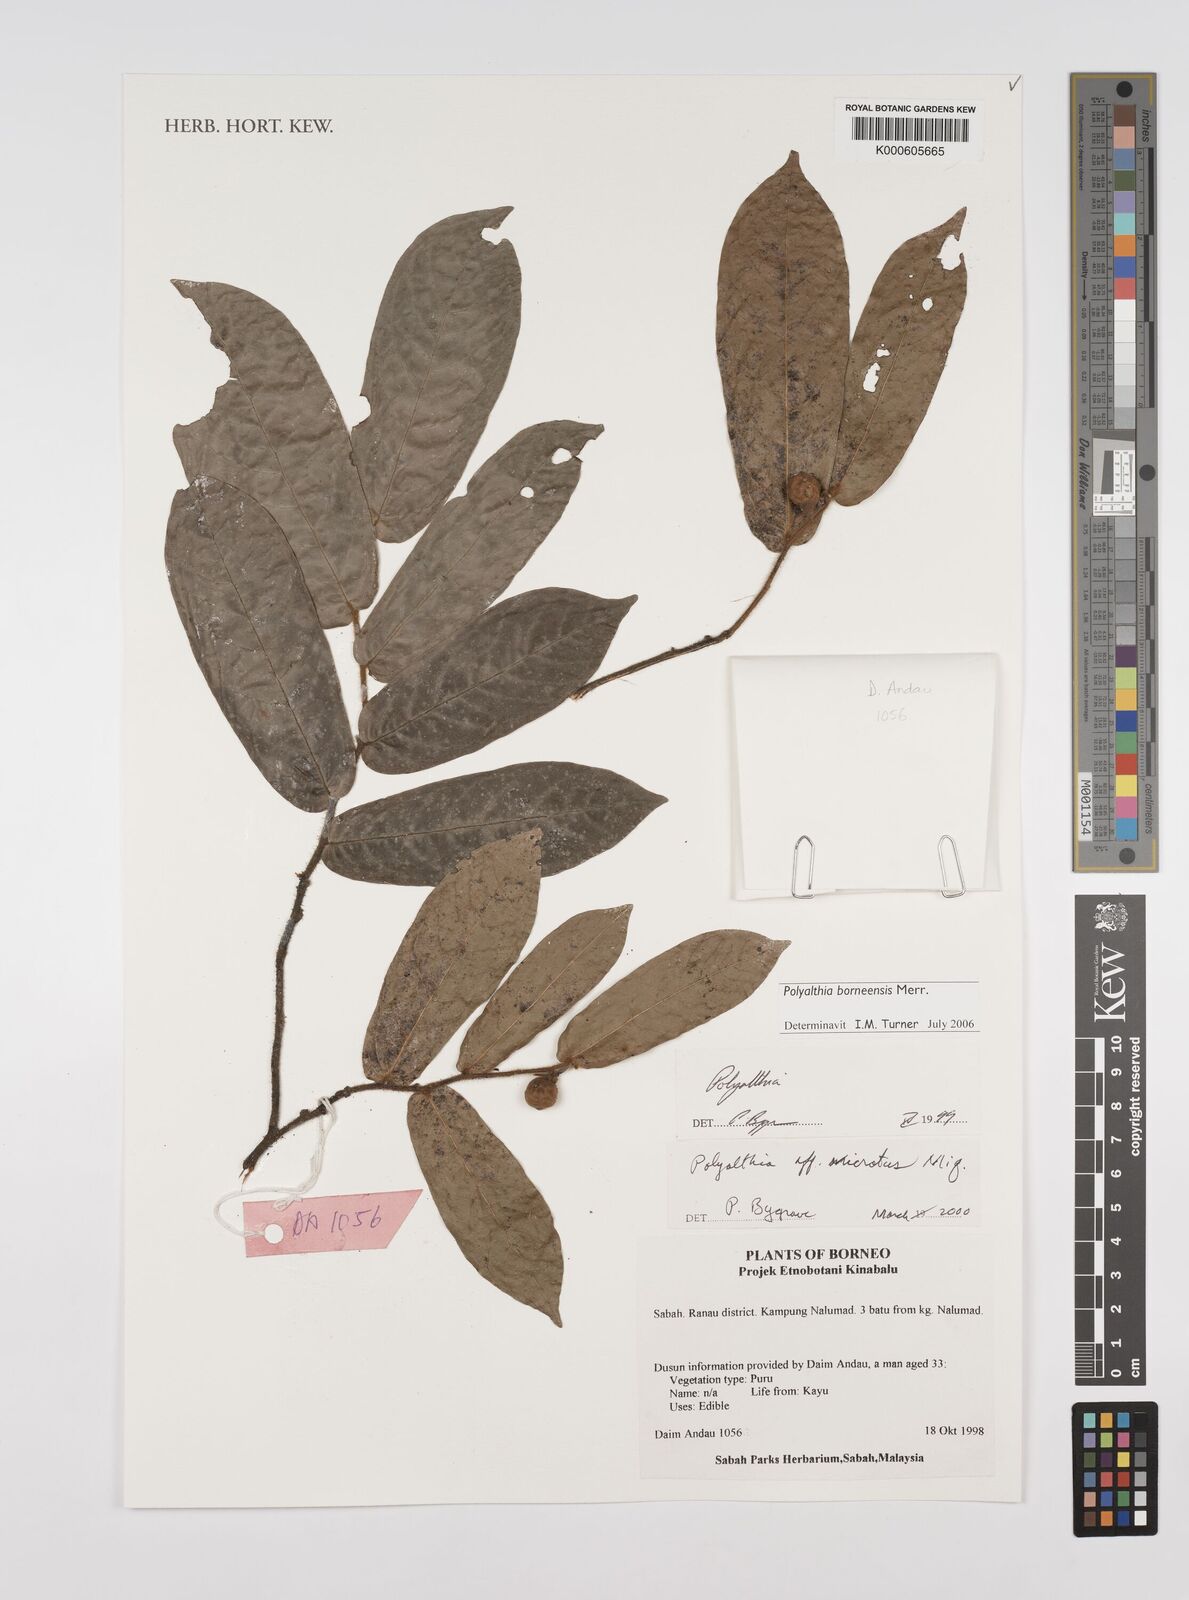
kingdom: Plantae
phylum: Tracheophyta
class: Magnoliopsida
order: Magnoliales
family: Annonaceae
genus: Polyalthia
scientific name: Polyalthia cauliflora
